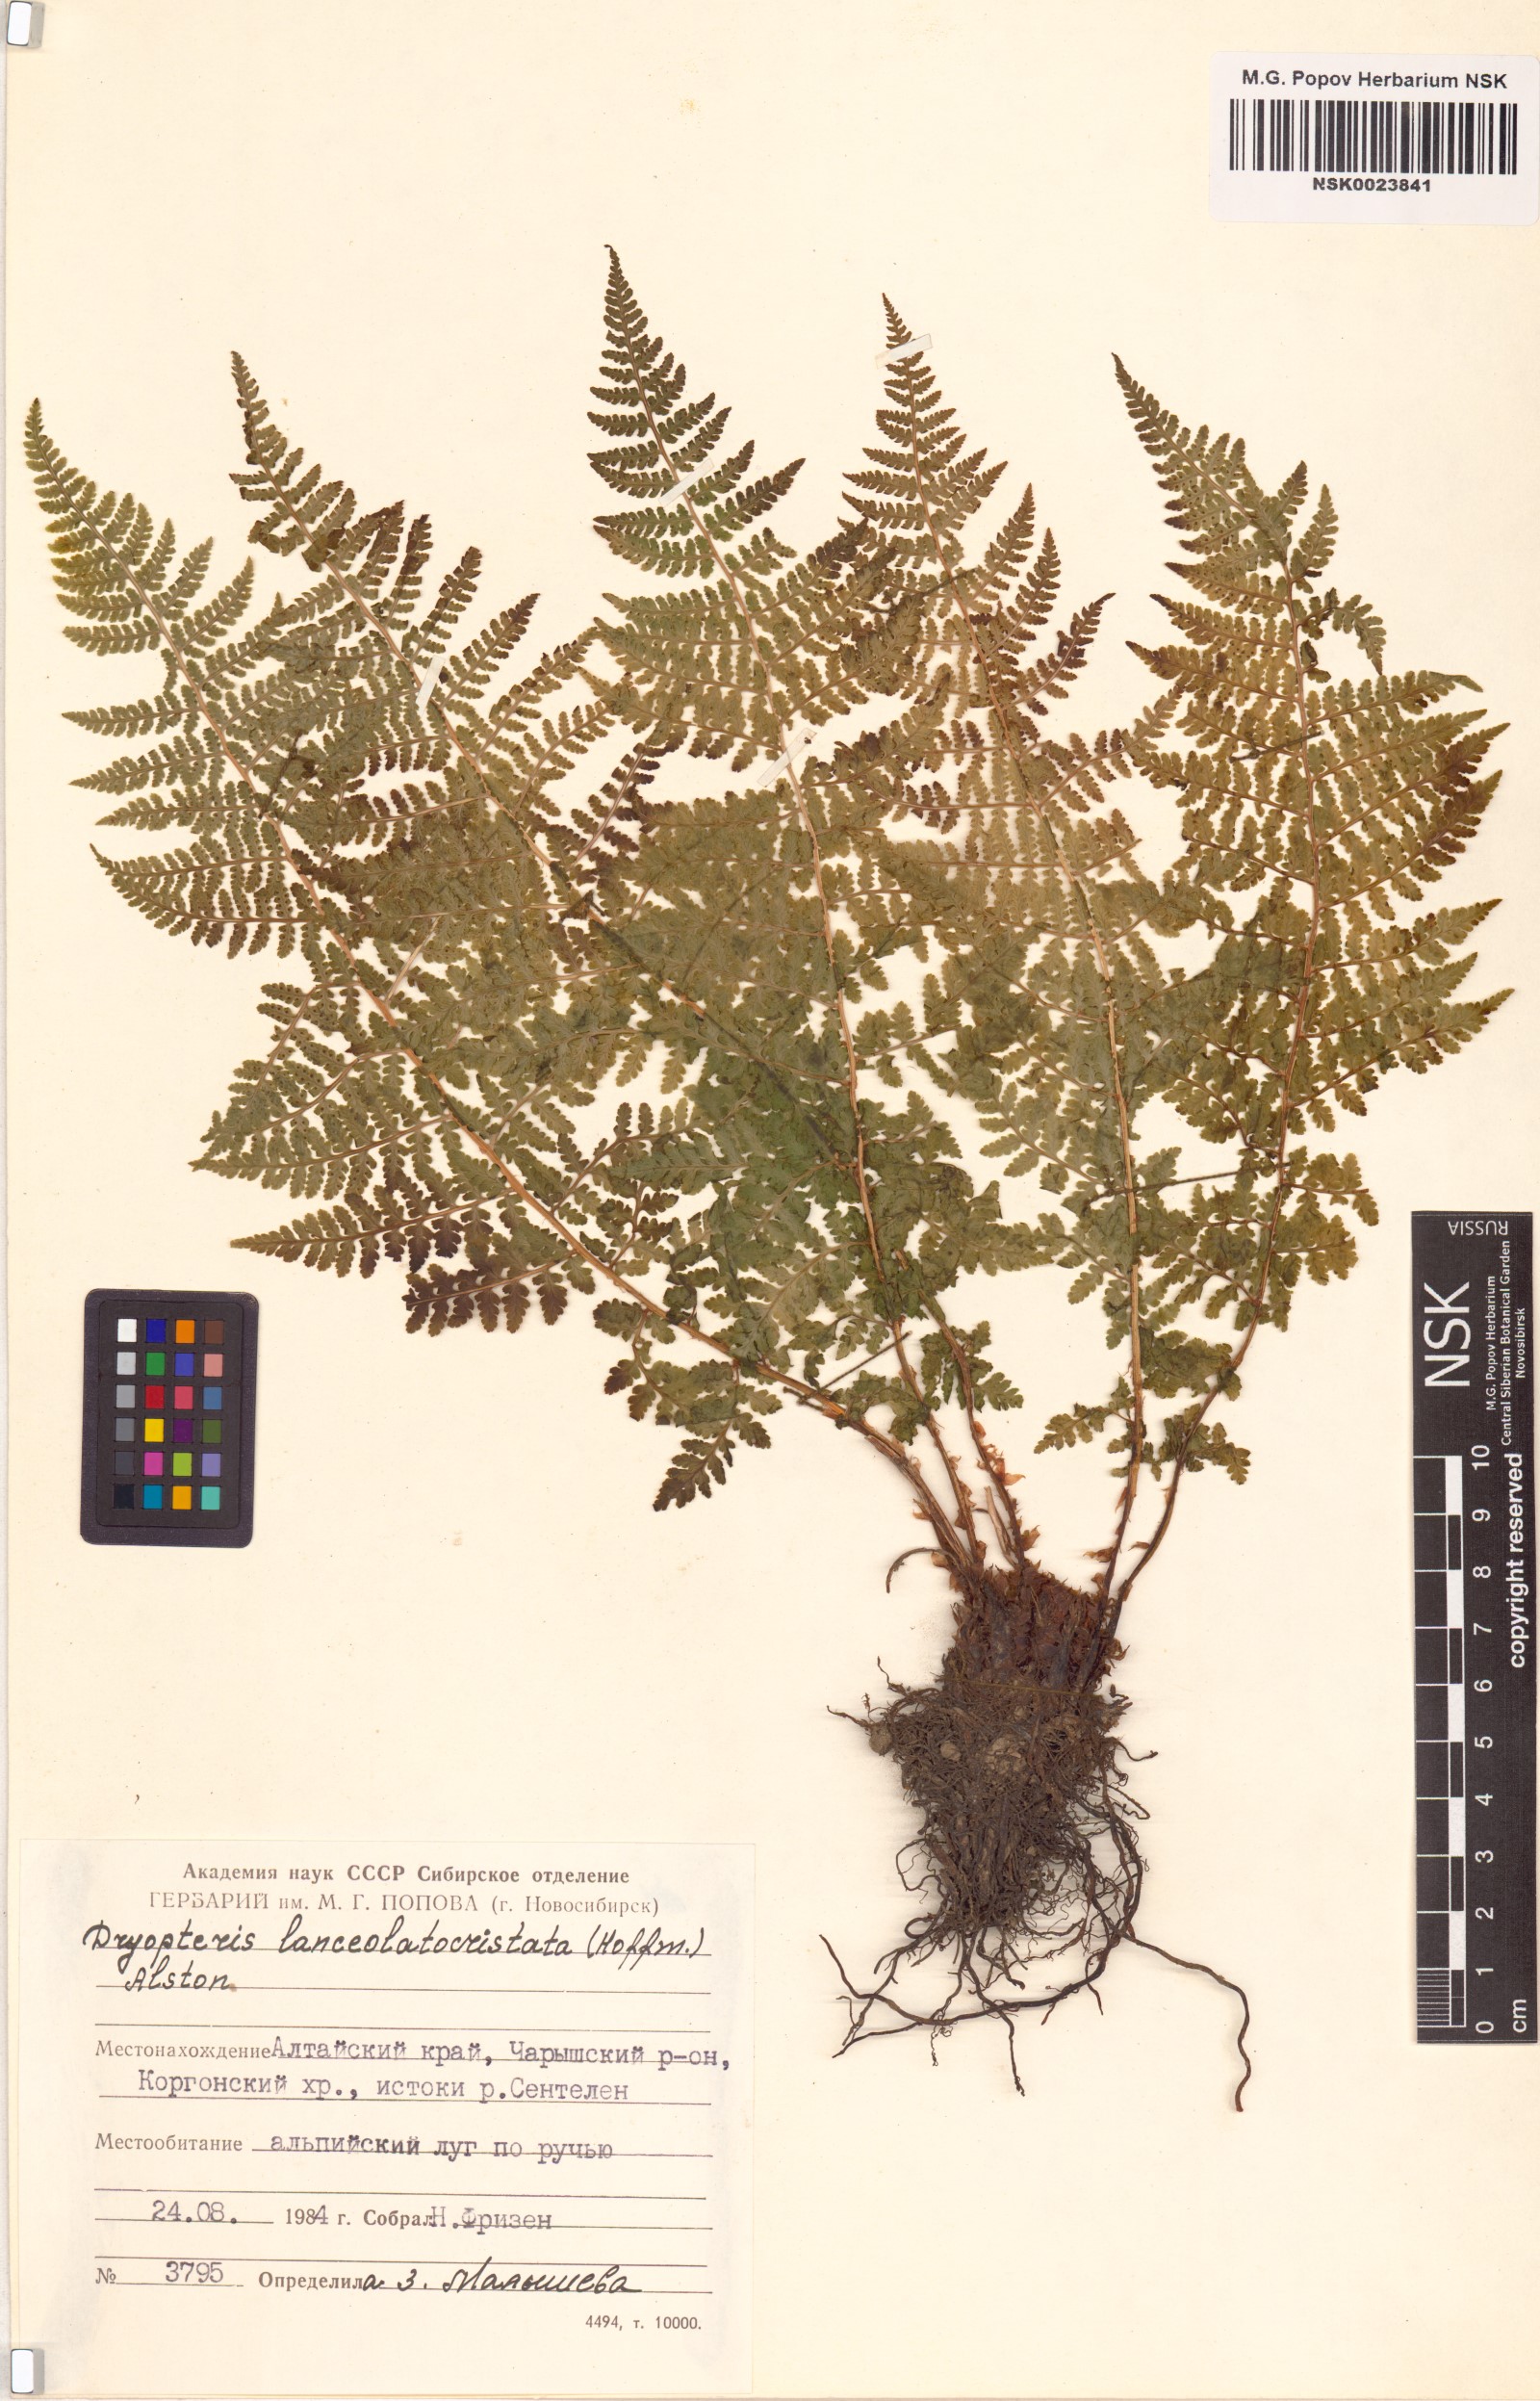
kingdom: Plantae
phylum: Tracheophyta
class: Polypodiopsida
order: Polypodiales
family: Dryopteridaceae
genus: Dryopteris
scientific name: Dryopteris carthusiana
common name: Narrow buckler-fern
